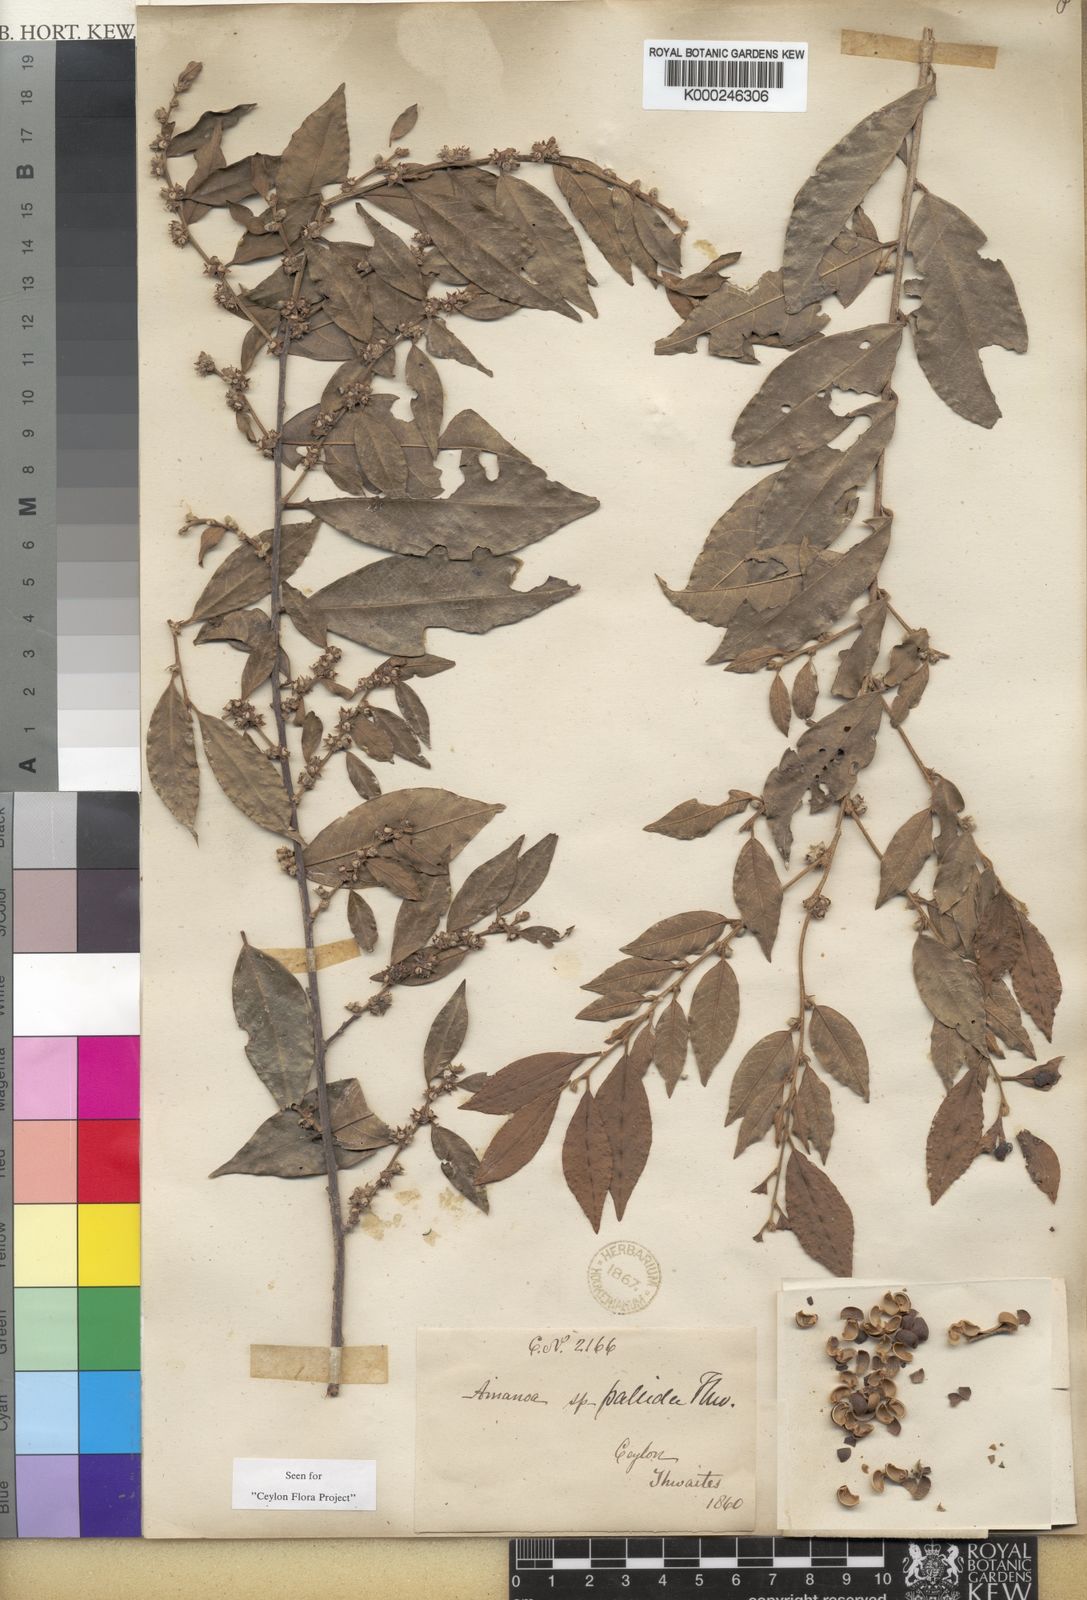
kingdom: Plantae
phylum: Tracheophyta
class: Magnoliopsida
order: Malpighiales
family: Phyllanthaceae
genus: Cleistanthus
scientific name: Cleistanthus
